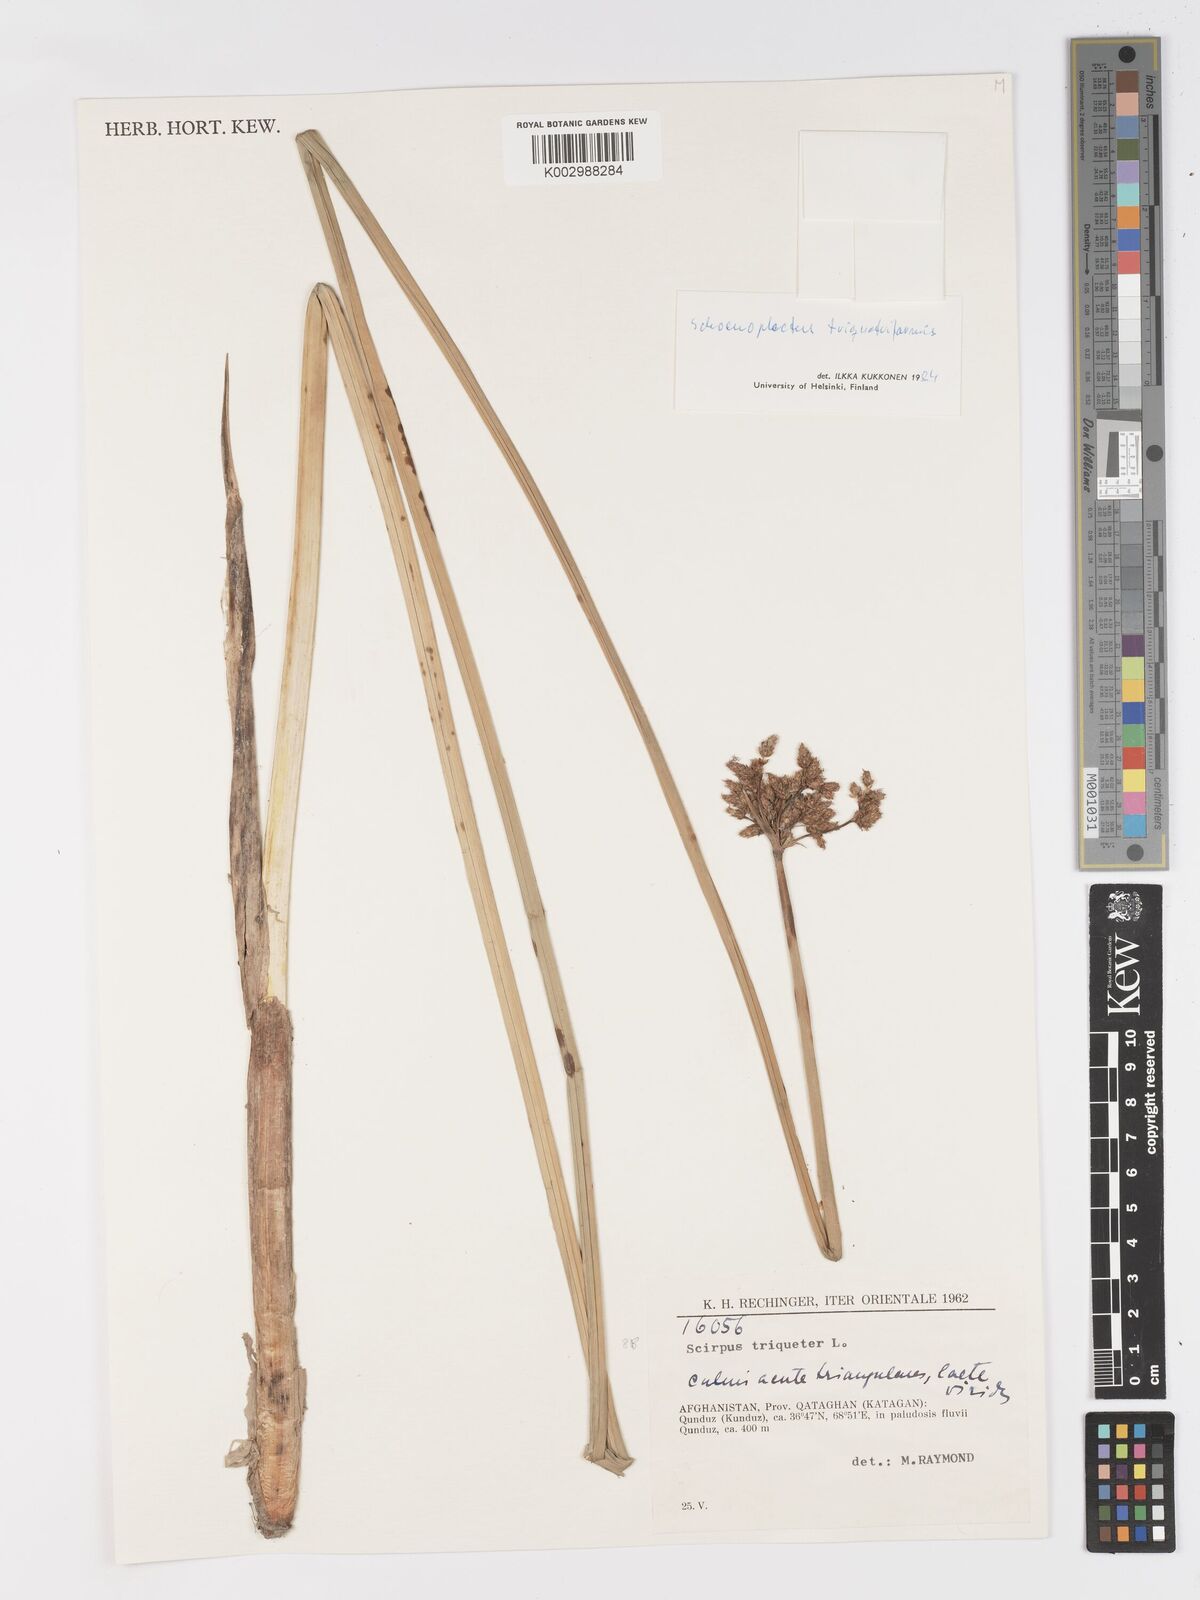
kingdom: Plantae
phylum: Tracheophyta
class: Liliopsida
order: Poales
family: Cyperaceae
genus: Schoenoplectus
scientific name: Schoenoplectus
